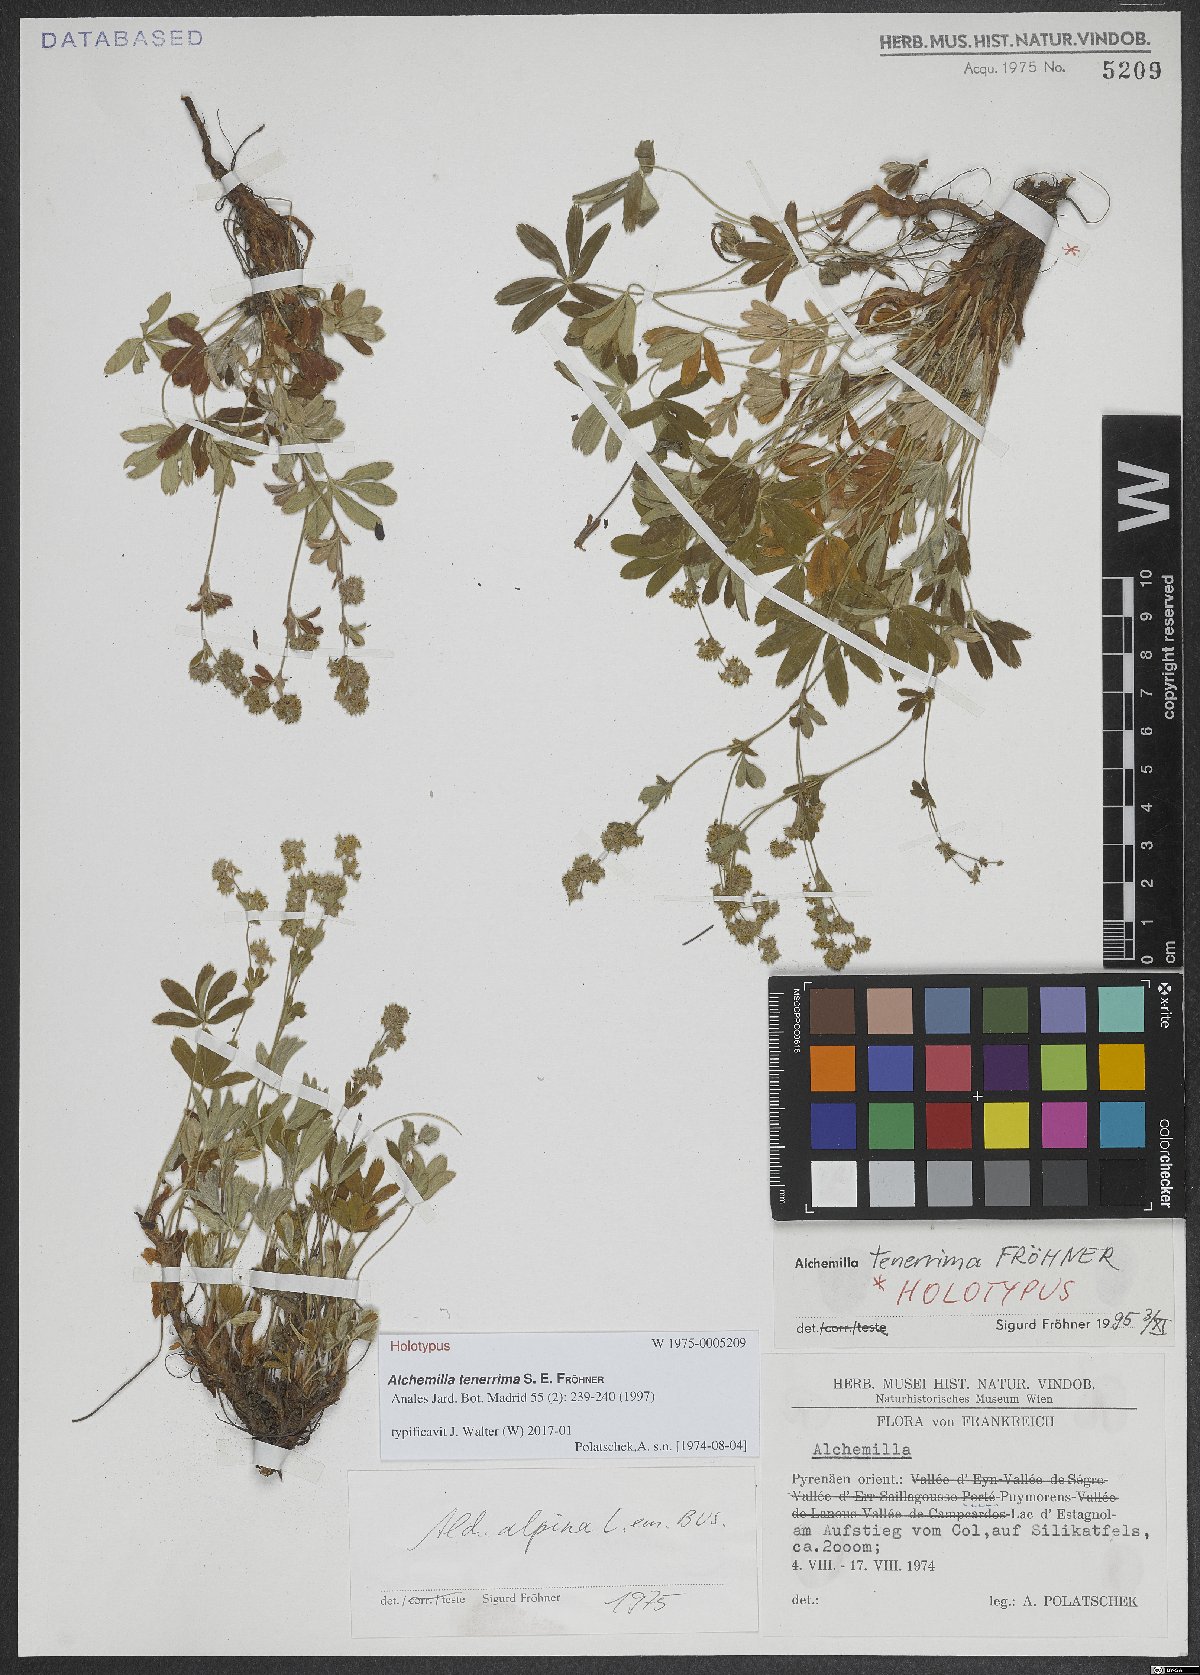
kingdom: Plantae
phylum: Tracheophyta
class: Magnoliopsida
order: Rosales
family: Rosaceae
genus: Alchemilla
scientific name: Alchemilla tenerrima
